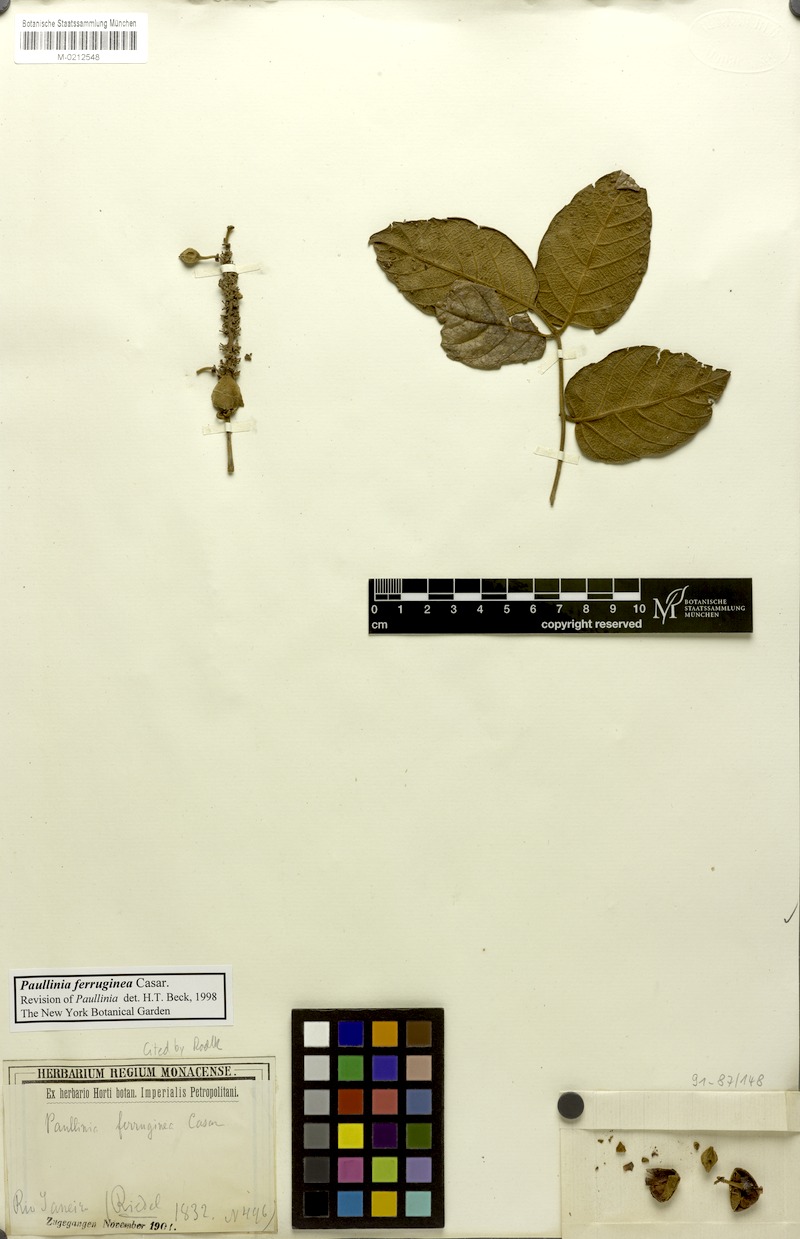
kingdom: Plantae
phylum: Tracheophyta
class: Magnoliopsida
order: Sapindales
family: Sapindaceae
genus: Paullinia
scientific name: Paullinia ferruginea
